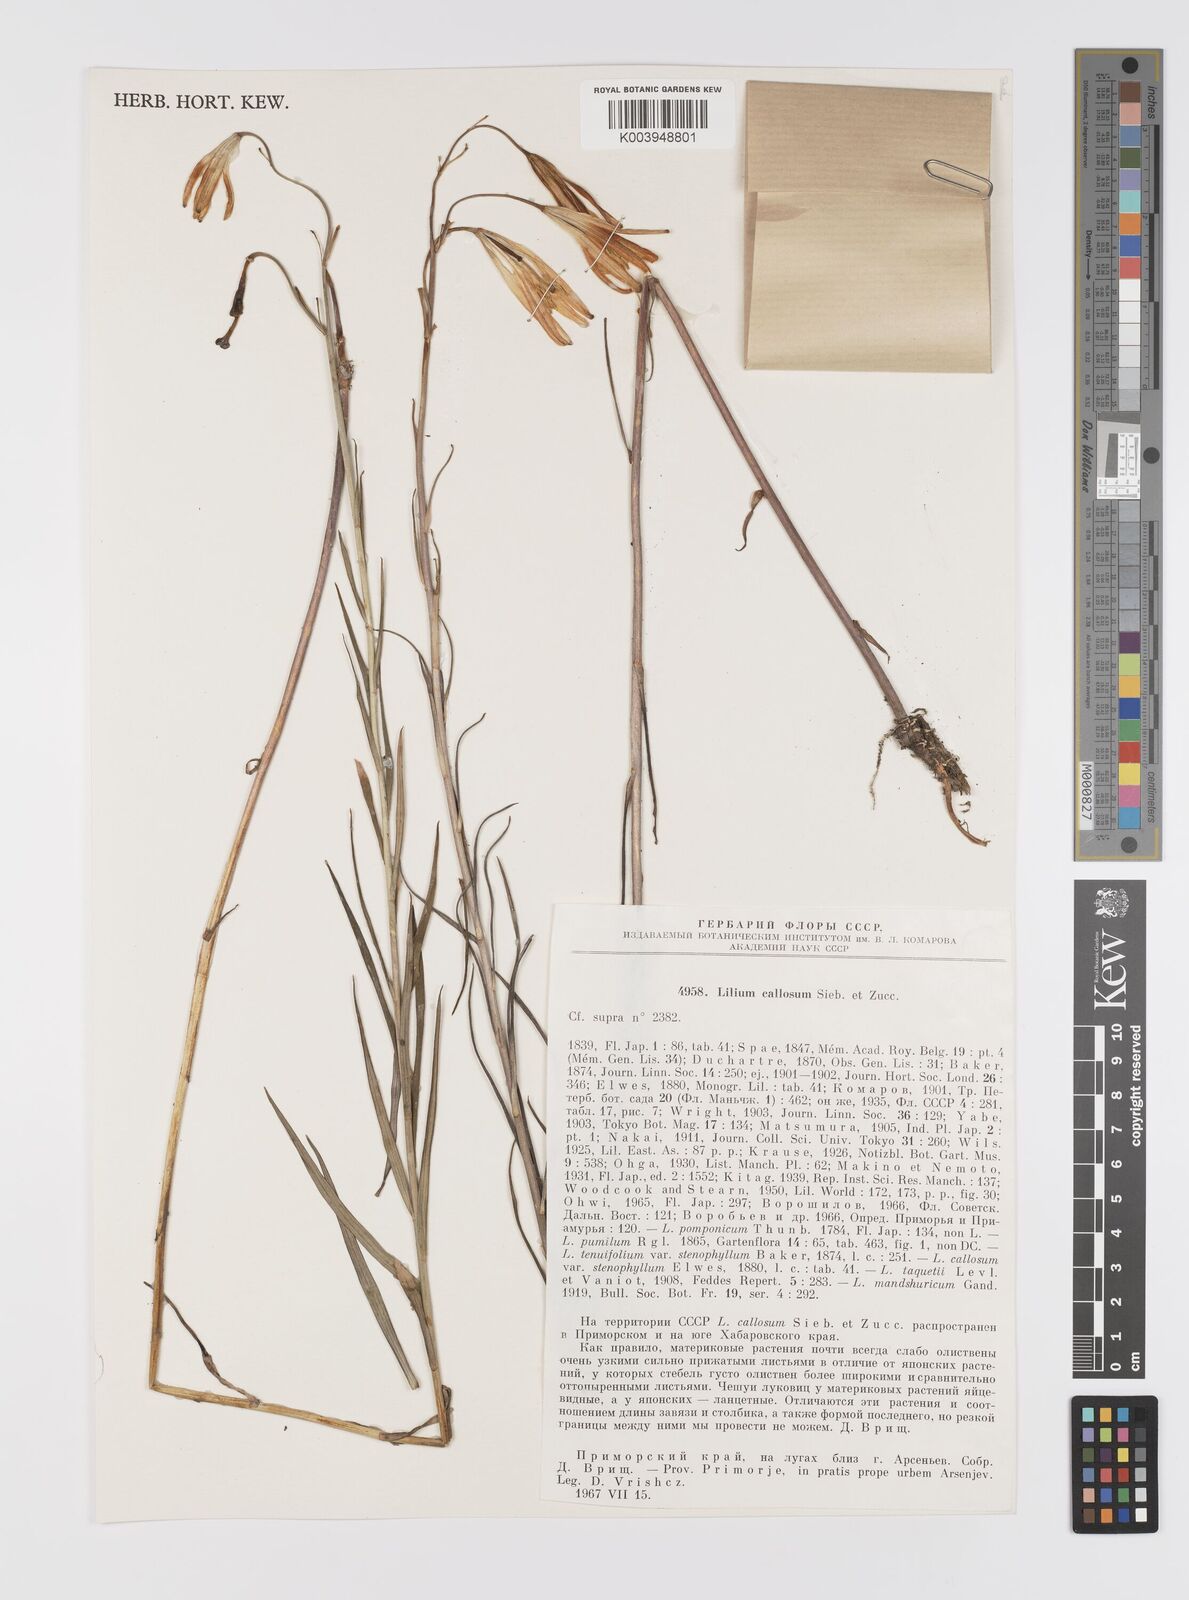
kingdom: Plantae
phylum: Tracheophyta
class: Liliopsida
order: Liliales
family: Liliaceae
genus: Lilium
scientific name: Lilium callosum
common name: Slim-stem lily
